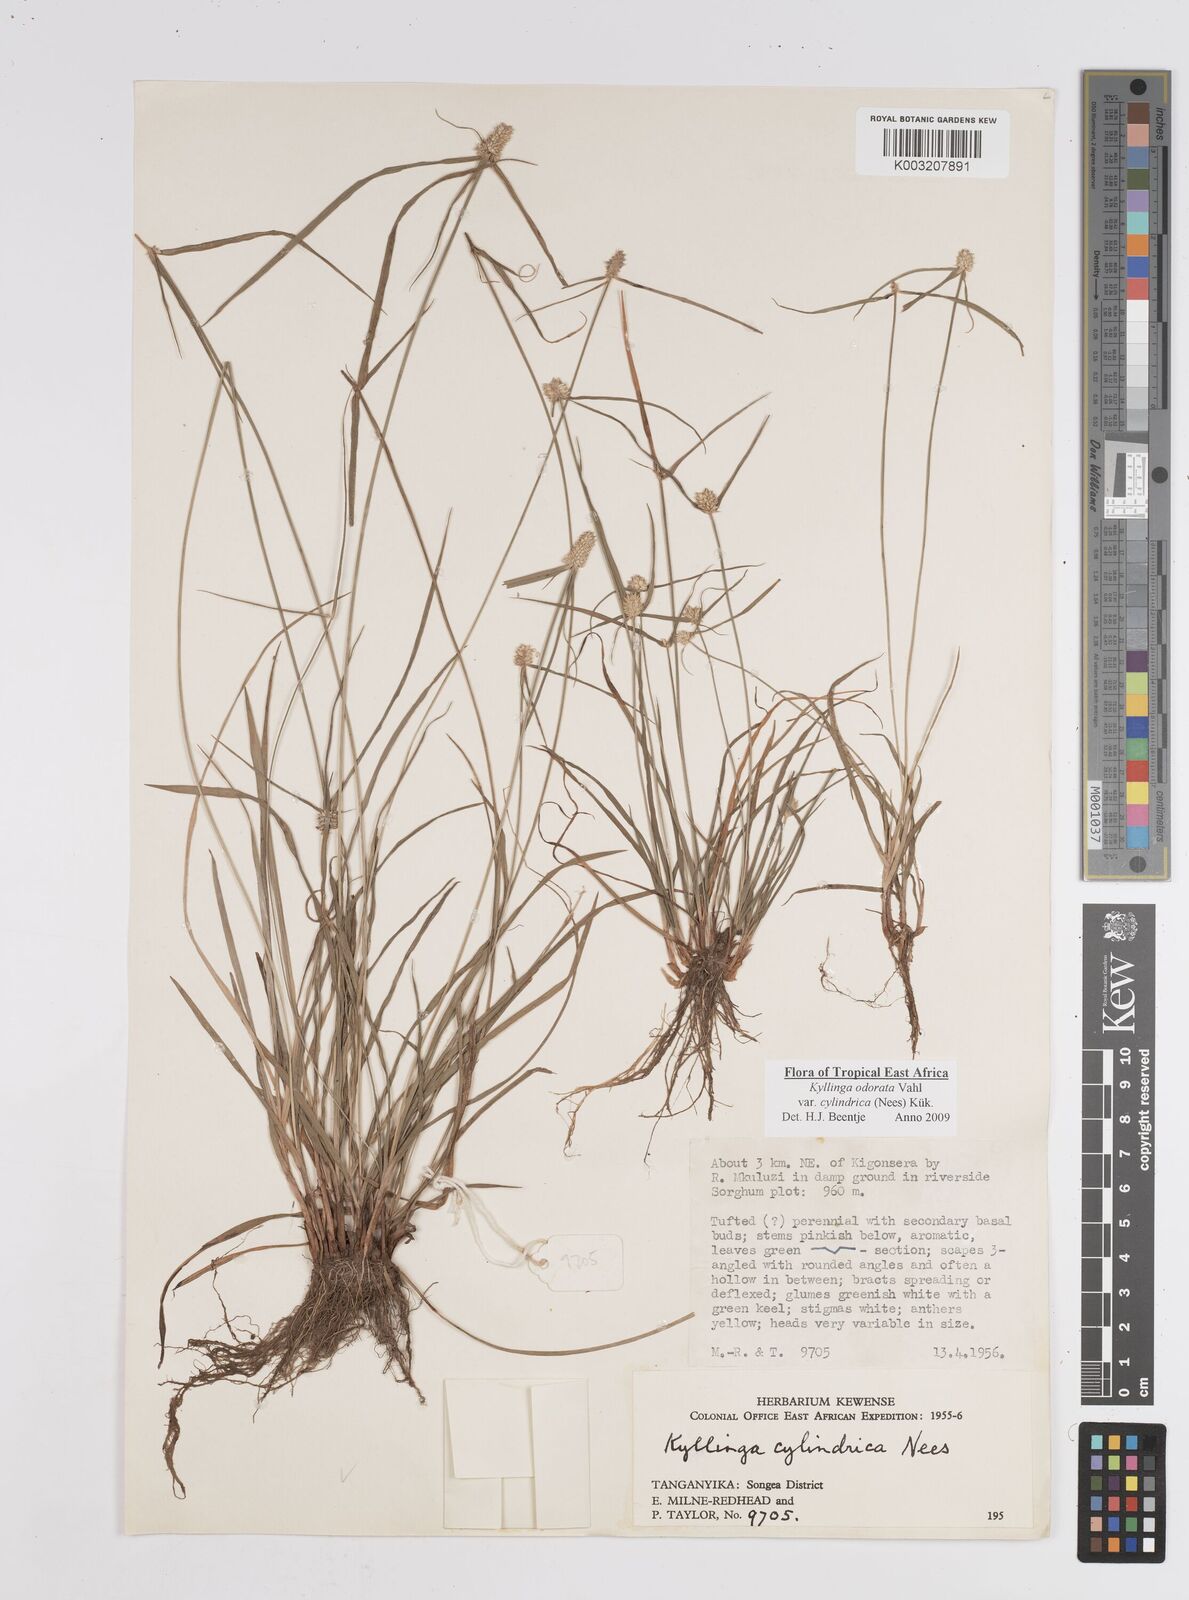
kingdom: Plantae
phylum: Tracheophyta
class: Liliopsida
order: Poales
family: Cyperaceae
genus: Cyperus
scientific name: Cyperus
